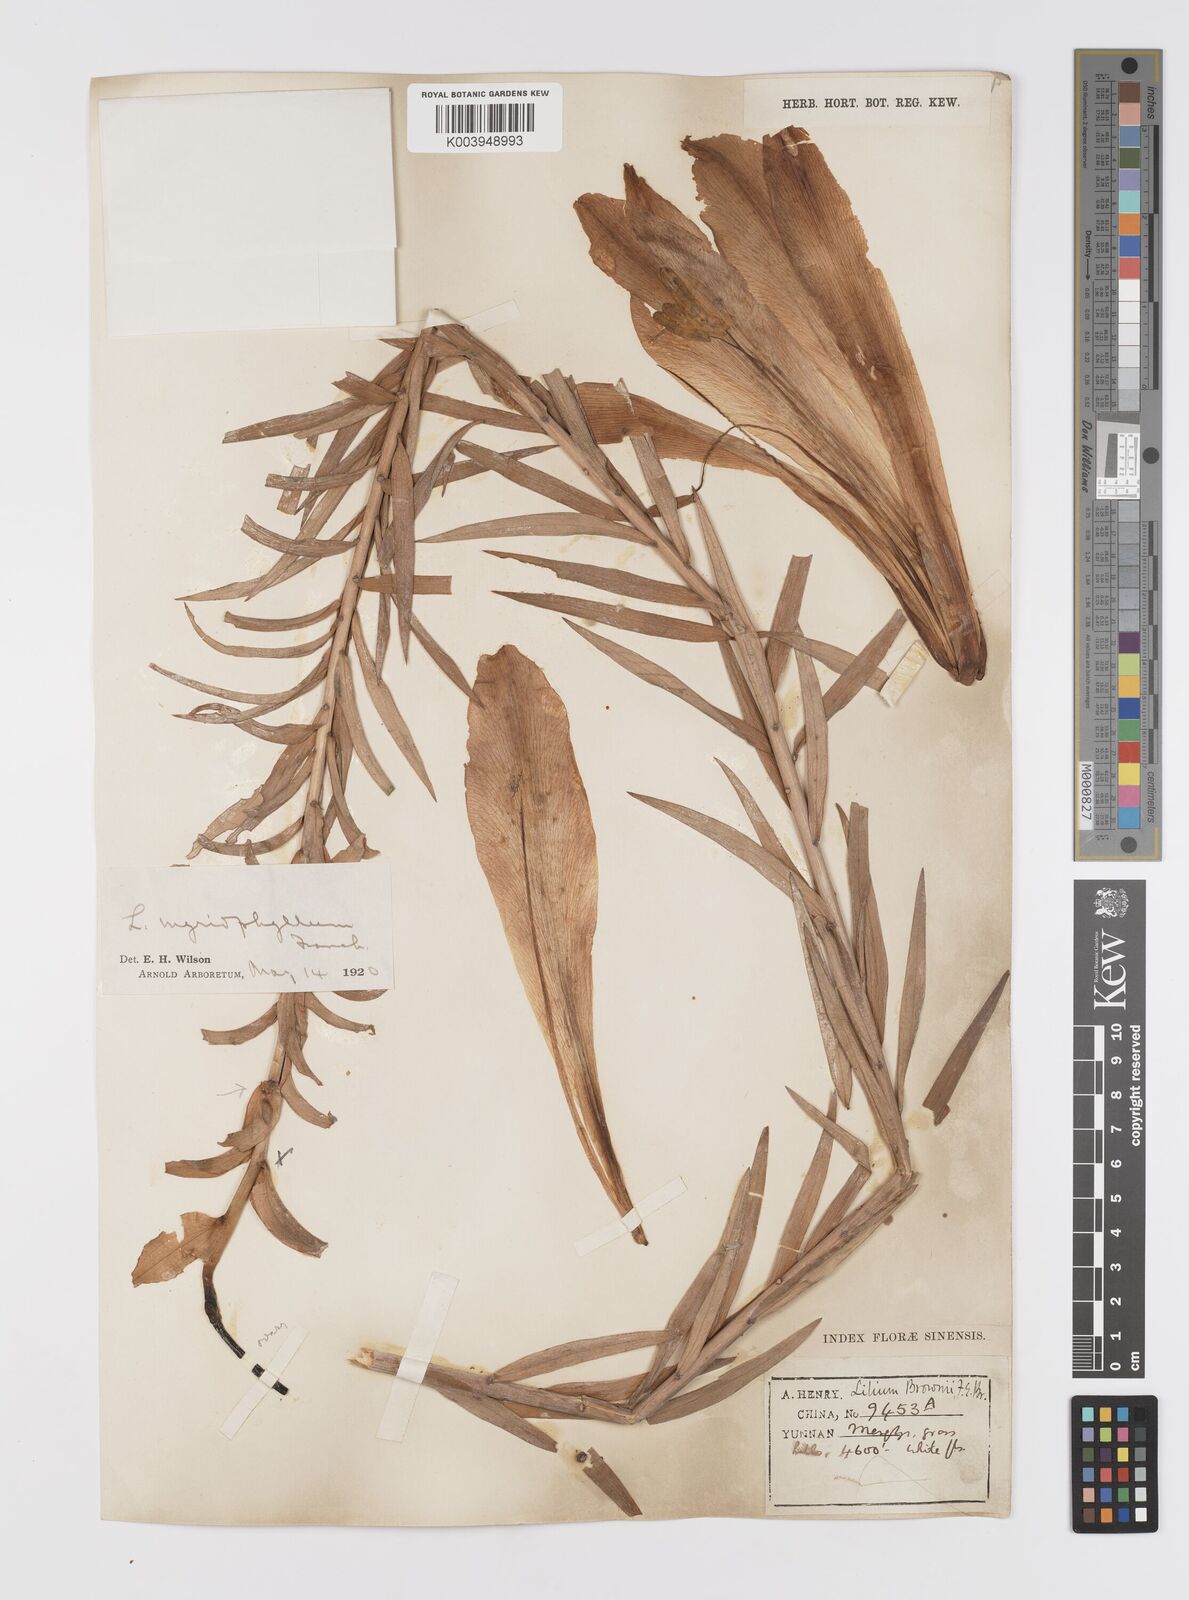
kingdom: Plantae
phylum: Tracheophyta
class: Liliopsida
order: Liliales
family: Liliaceae
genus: Lilium
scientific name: Lilium sulphureum
